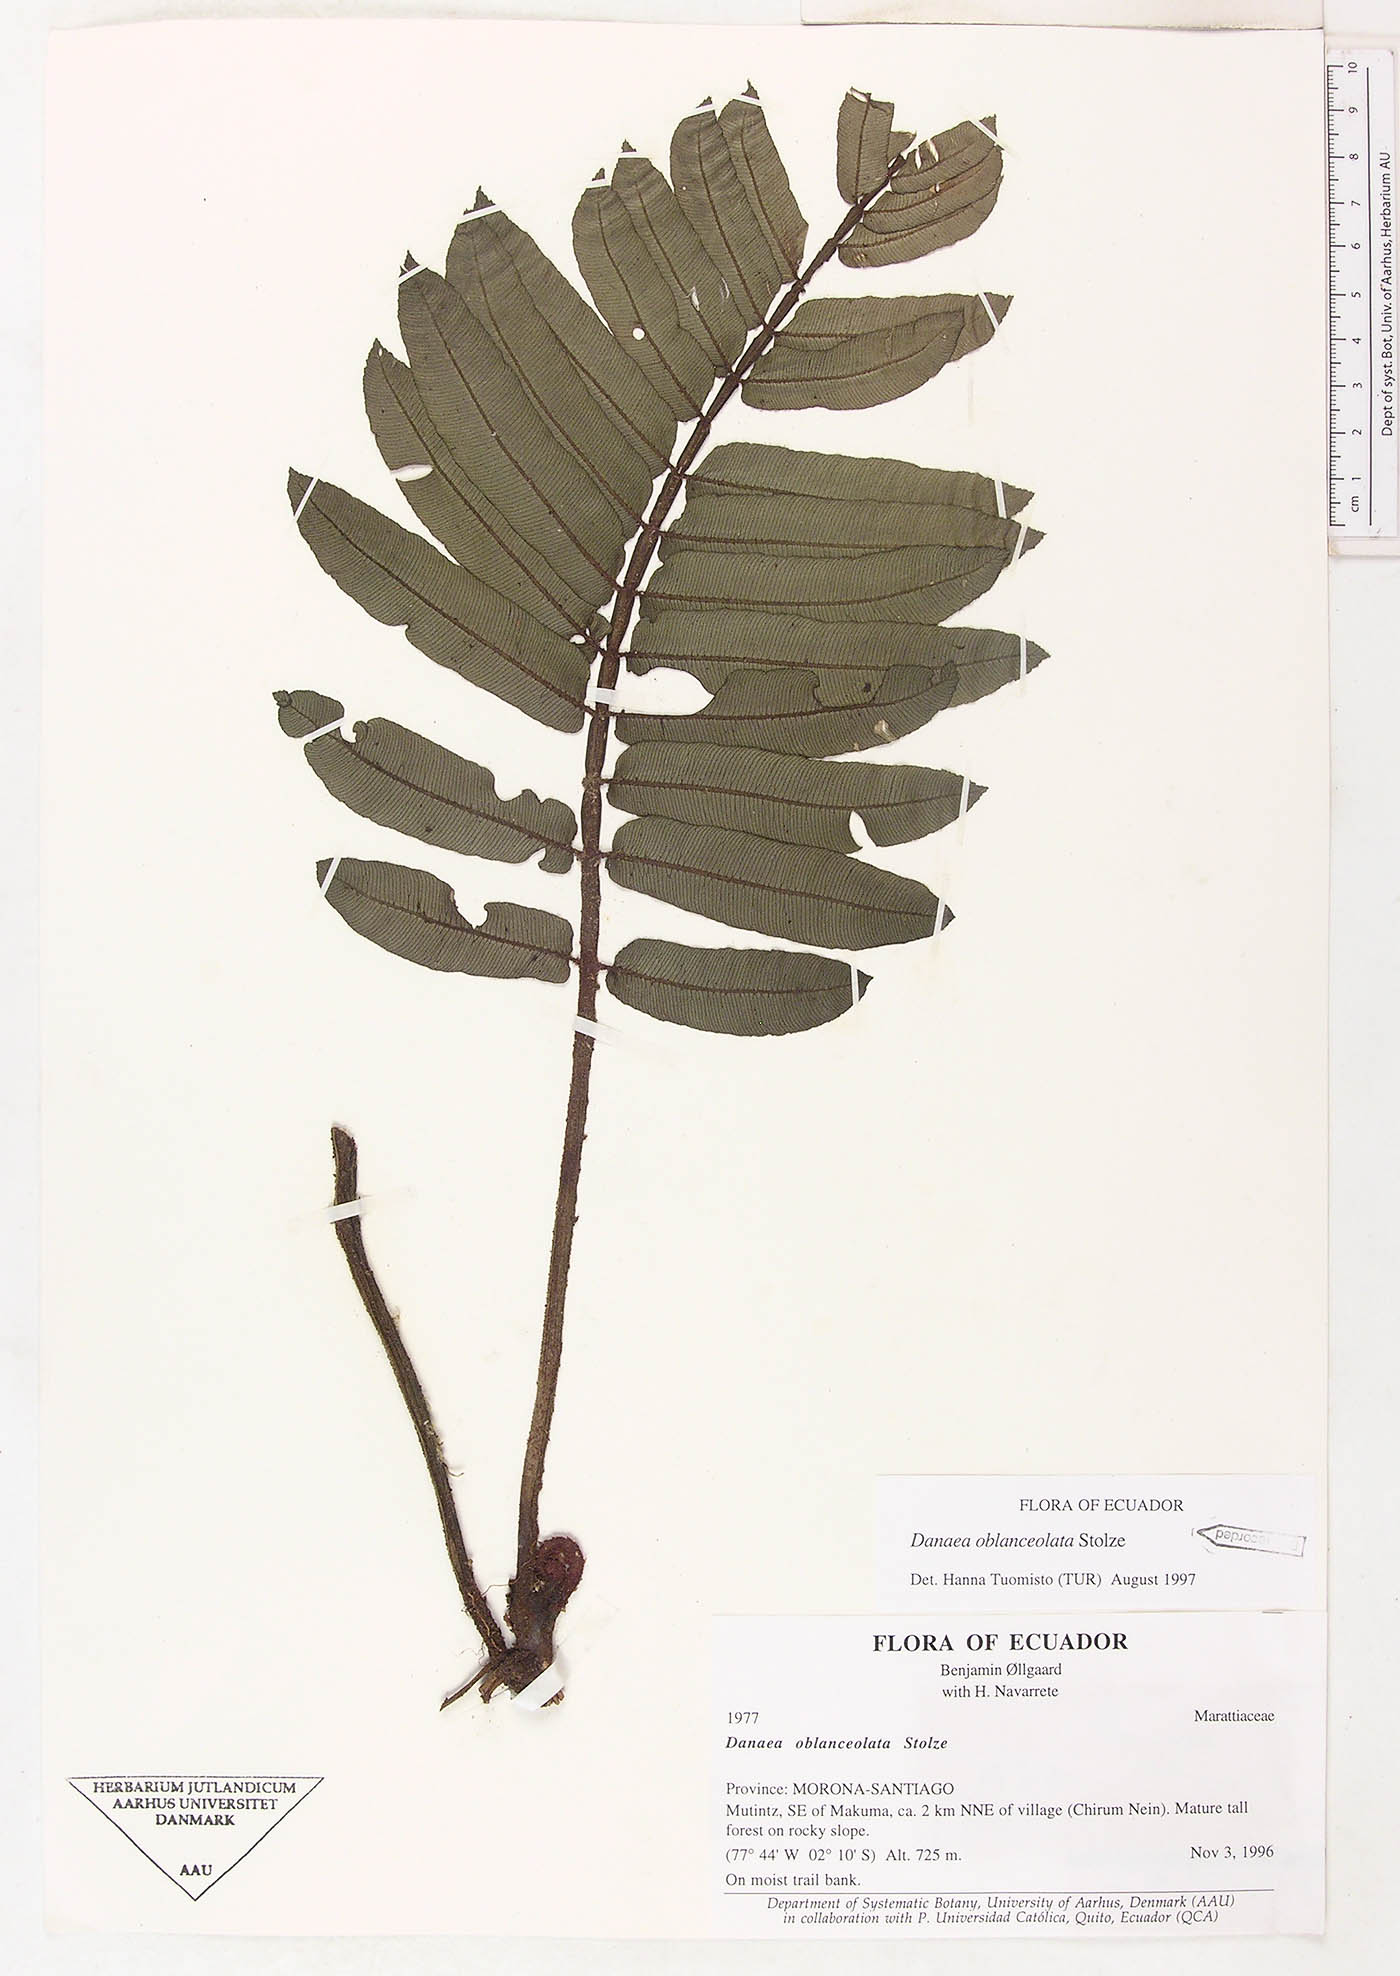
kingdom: Plantae
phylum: Tracheophyta
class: Polypodiopsida
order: Marattiales
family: Marattiaceae
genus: Danaea
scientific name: Danaea oblanceolata
